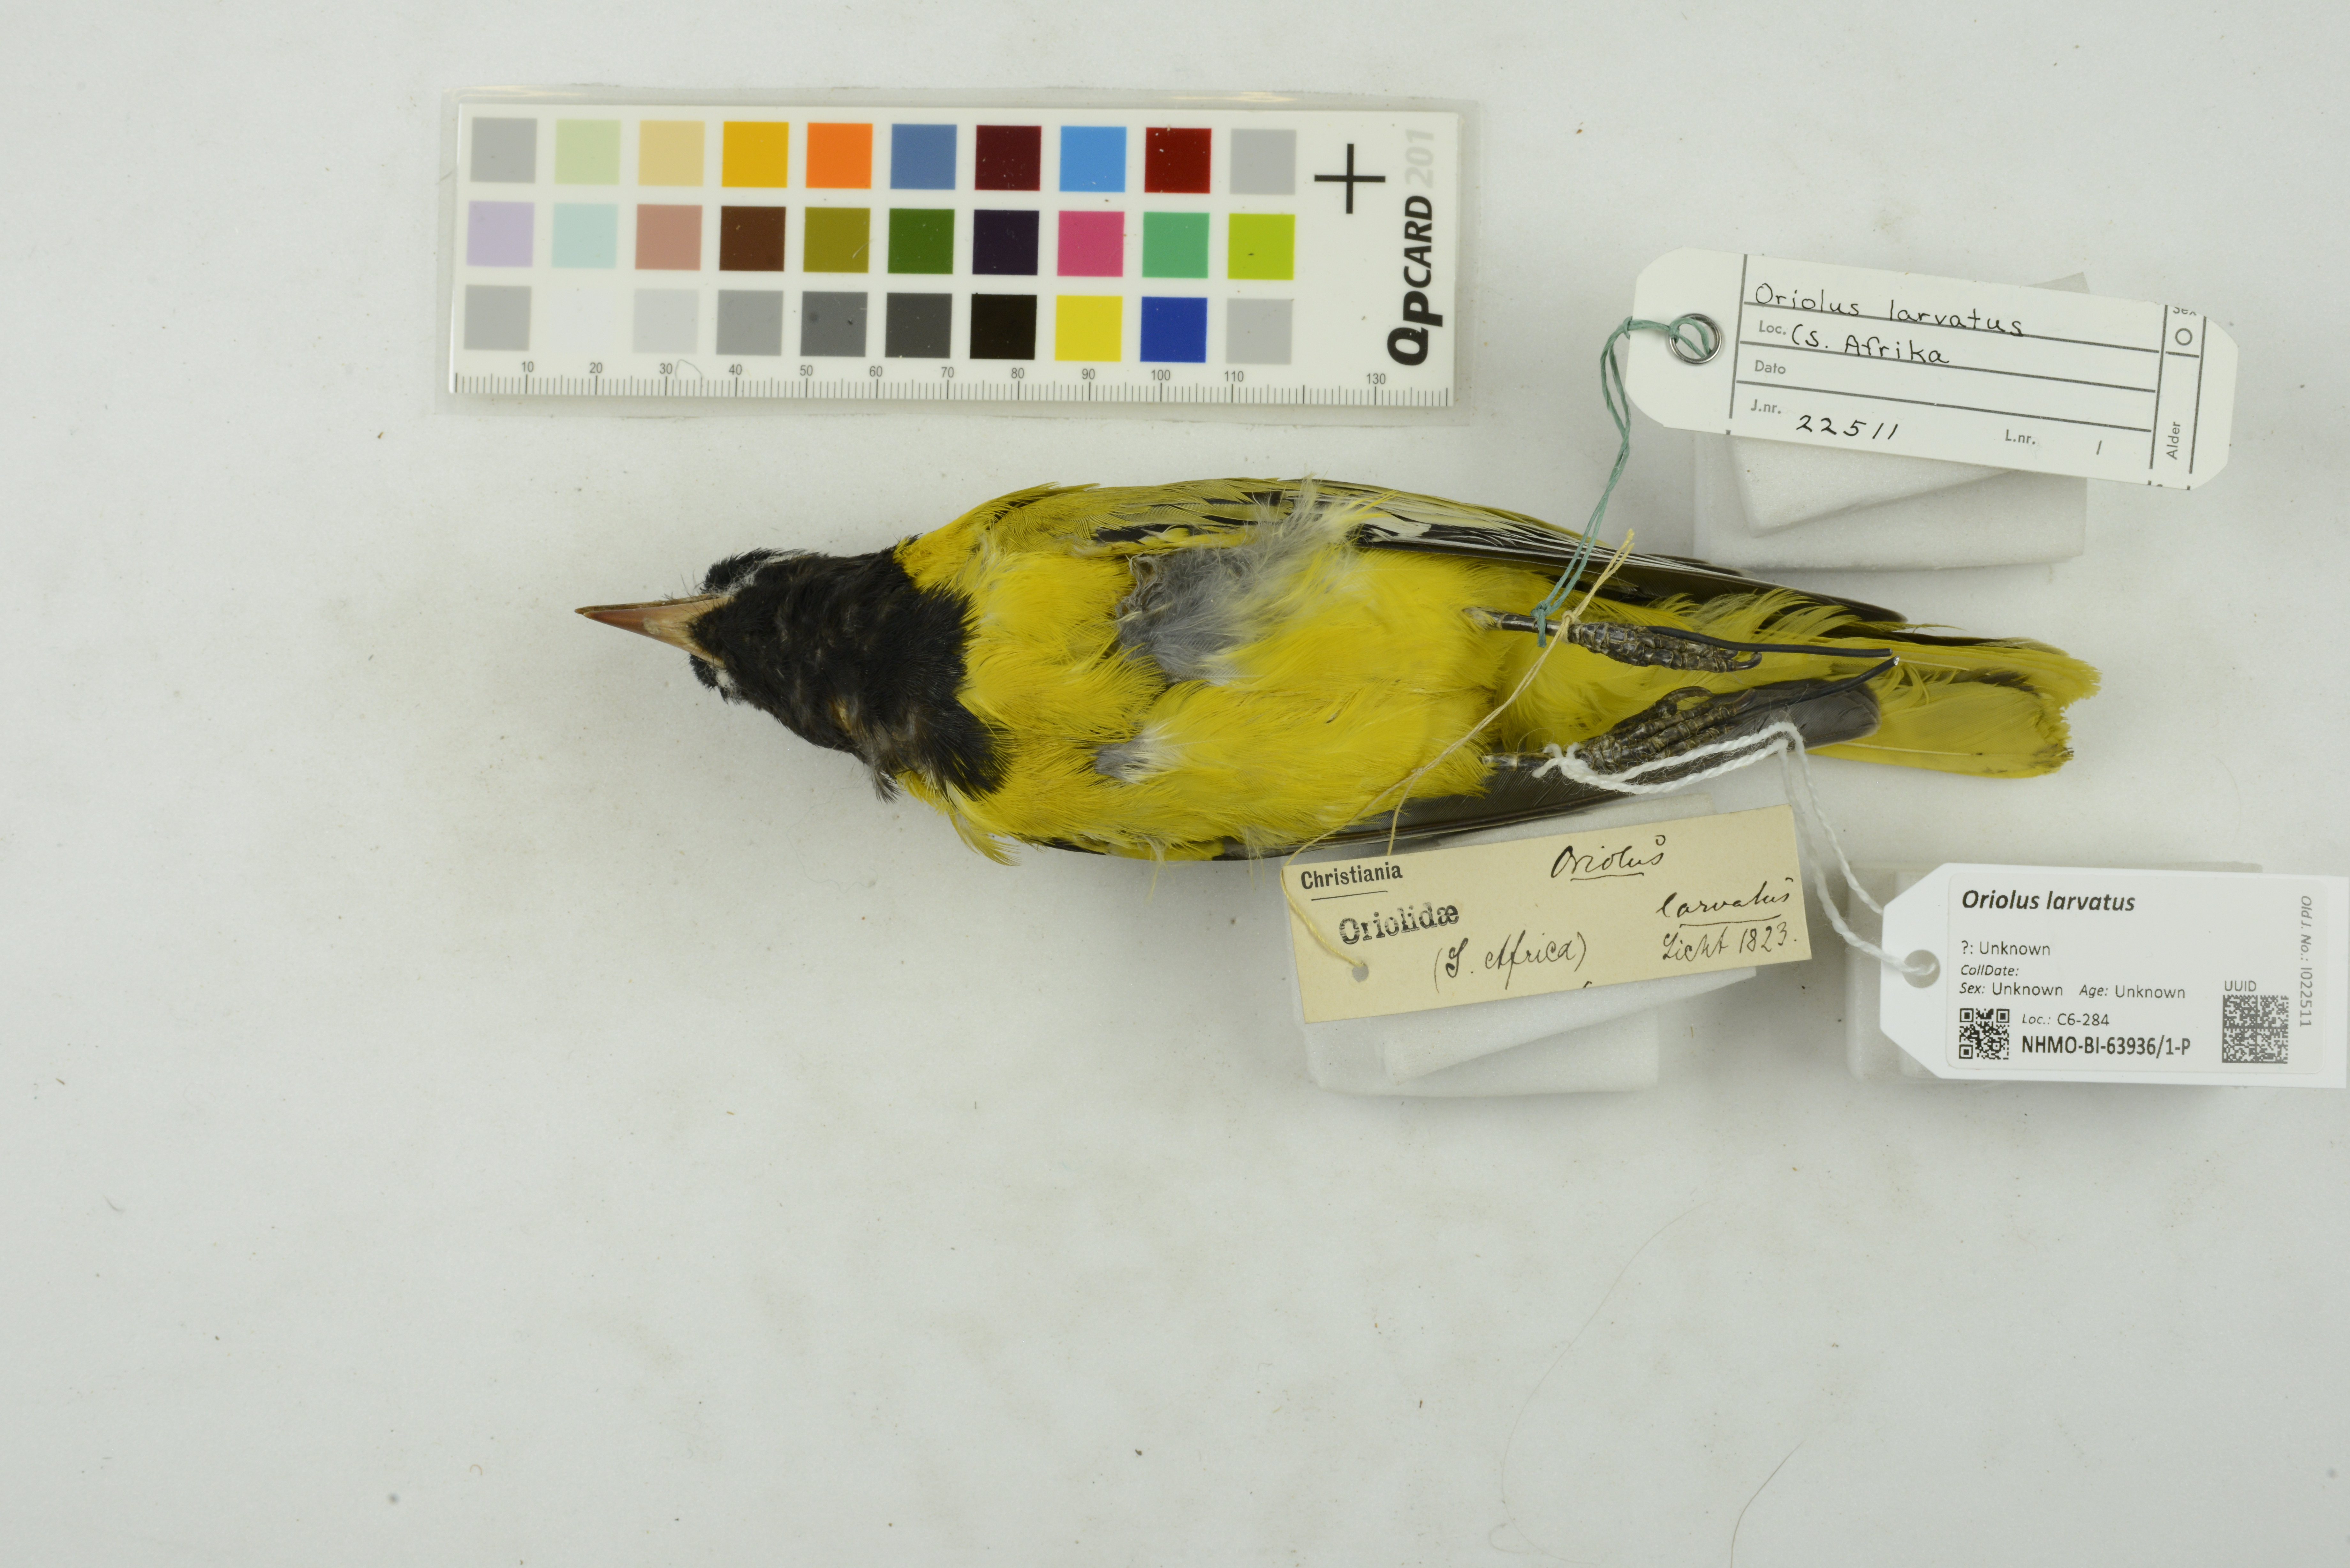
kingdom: Animalia
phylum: Chordata
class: Aves
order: Passeriformes
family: Oriolidae
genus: Oriolus
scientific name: Oriolus larvatus
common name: Black-headed oriole
